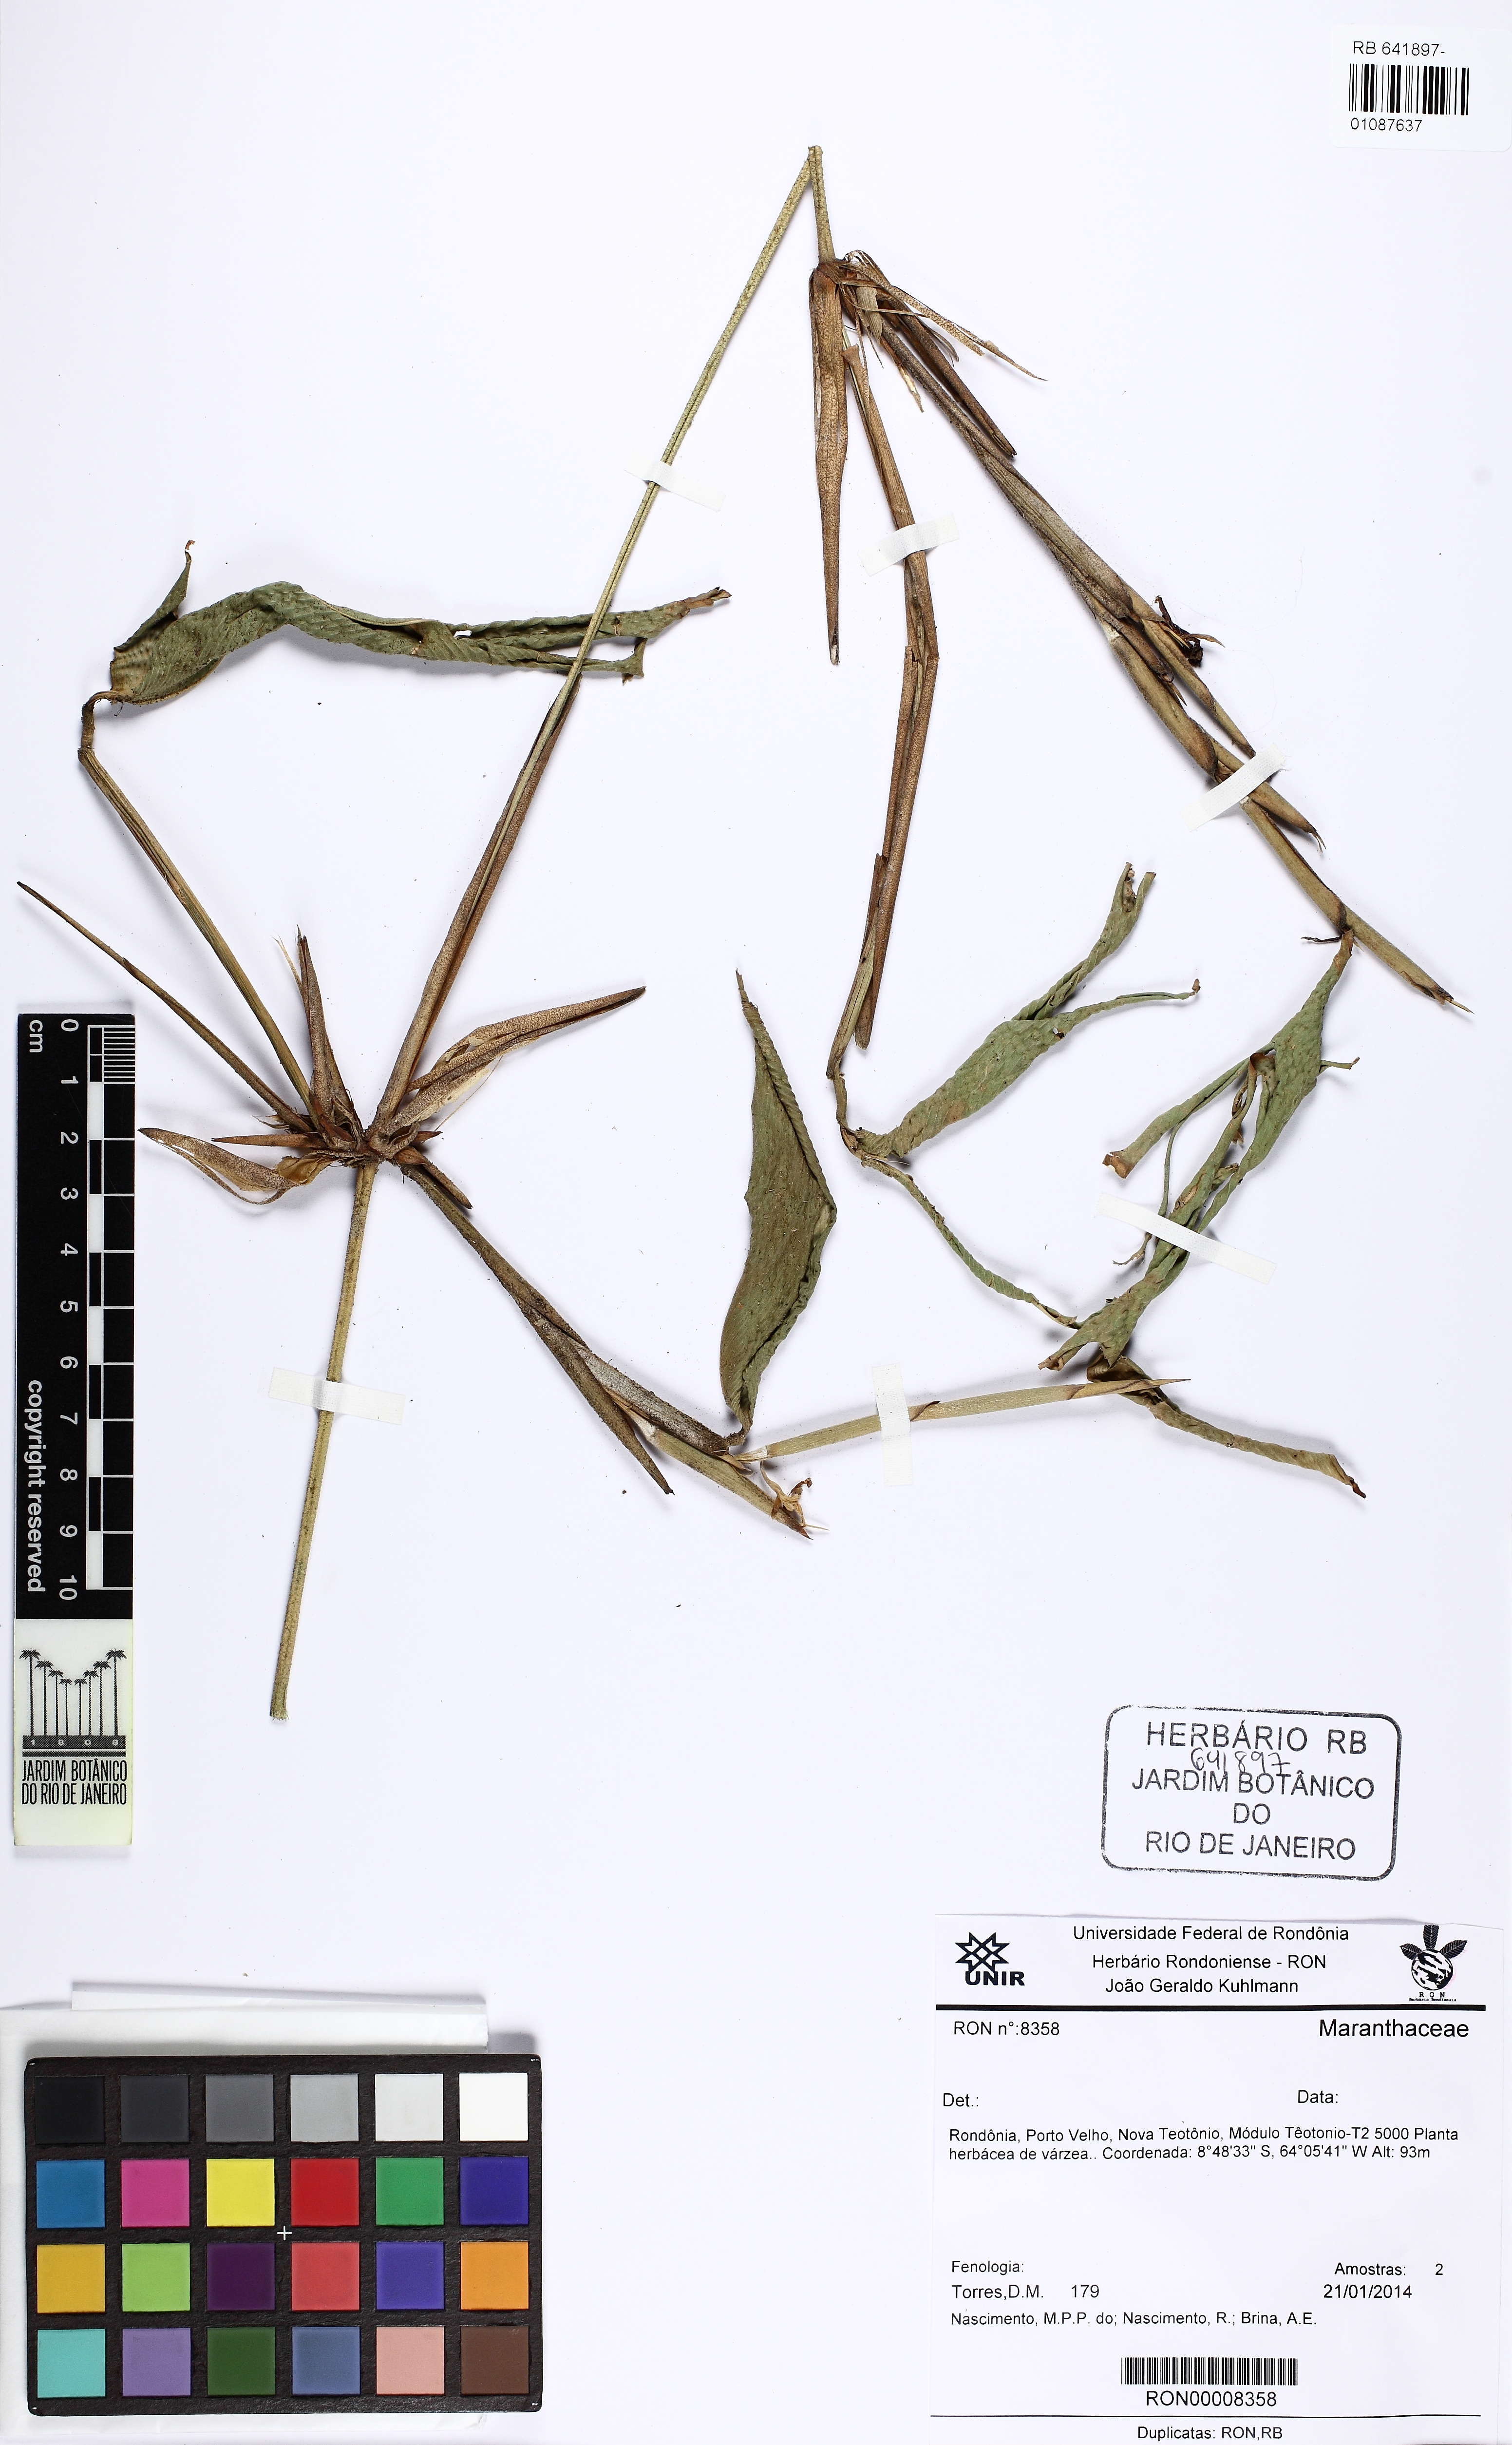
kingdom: Plantae
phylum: Tracheophyta
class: Liliopsida
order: Zingiberales
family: Marantaceae
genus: Ischnosiphon
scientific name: Ischnosiphon gracilis
